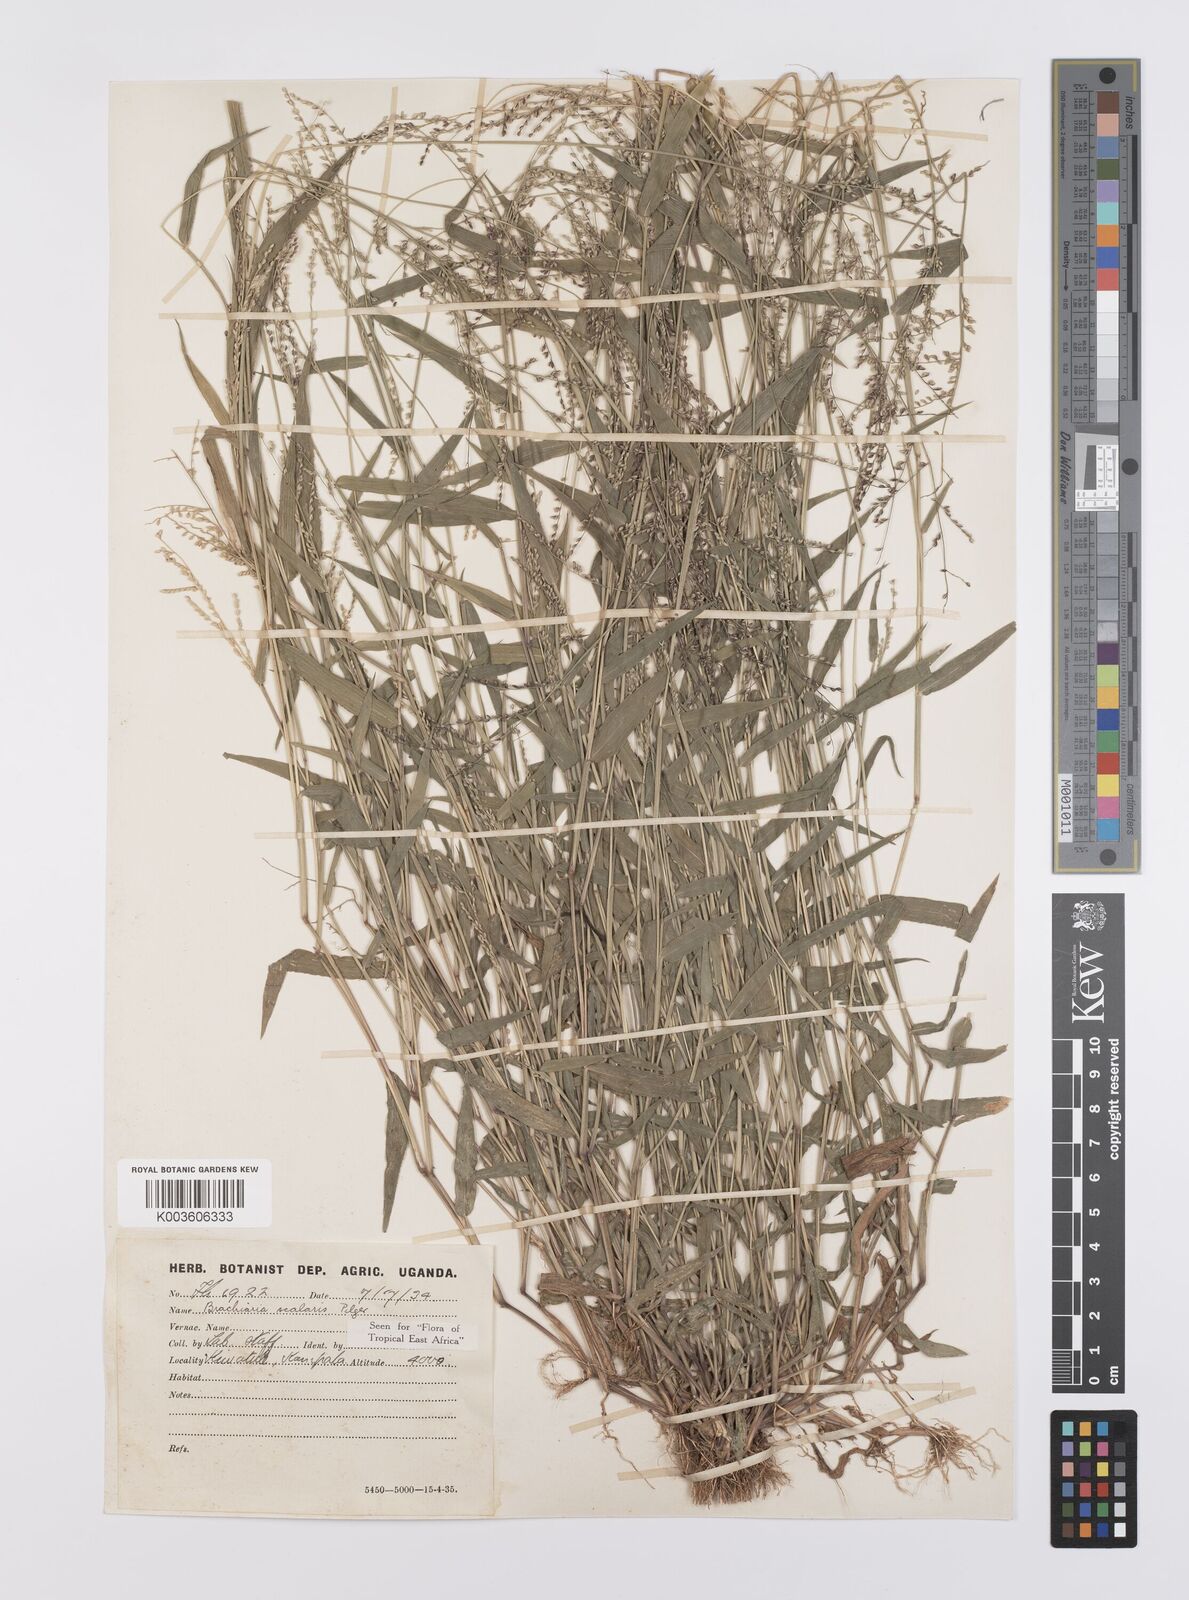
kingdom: Plantae
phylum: Tracheophyta
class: Liliopsida
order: Poales
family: Poaceae
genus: Urochloa
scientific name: Urochloa comata
